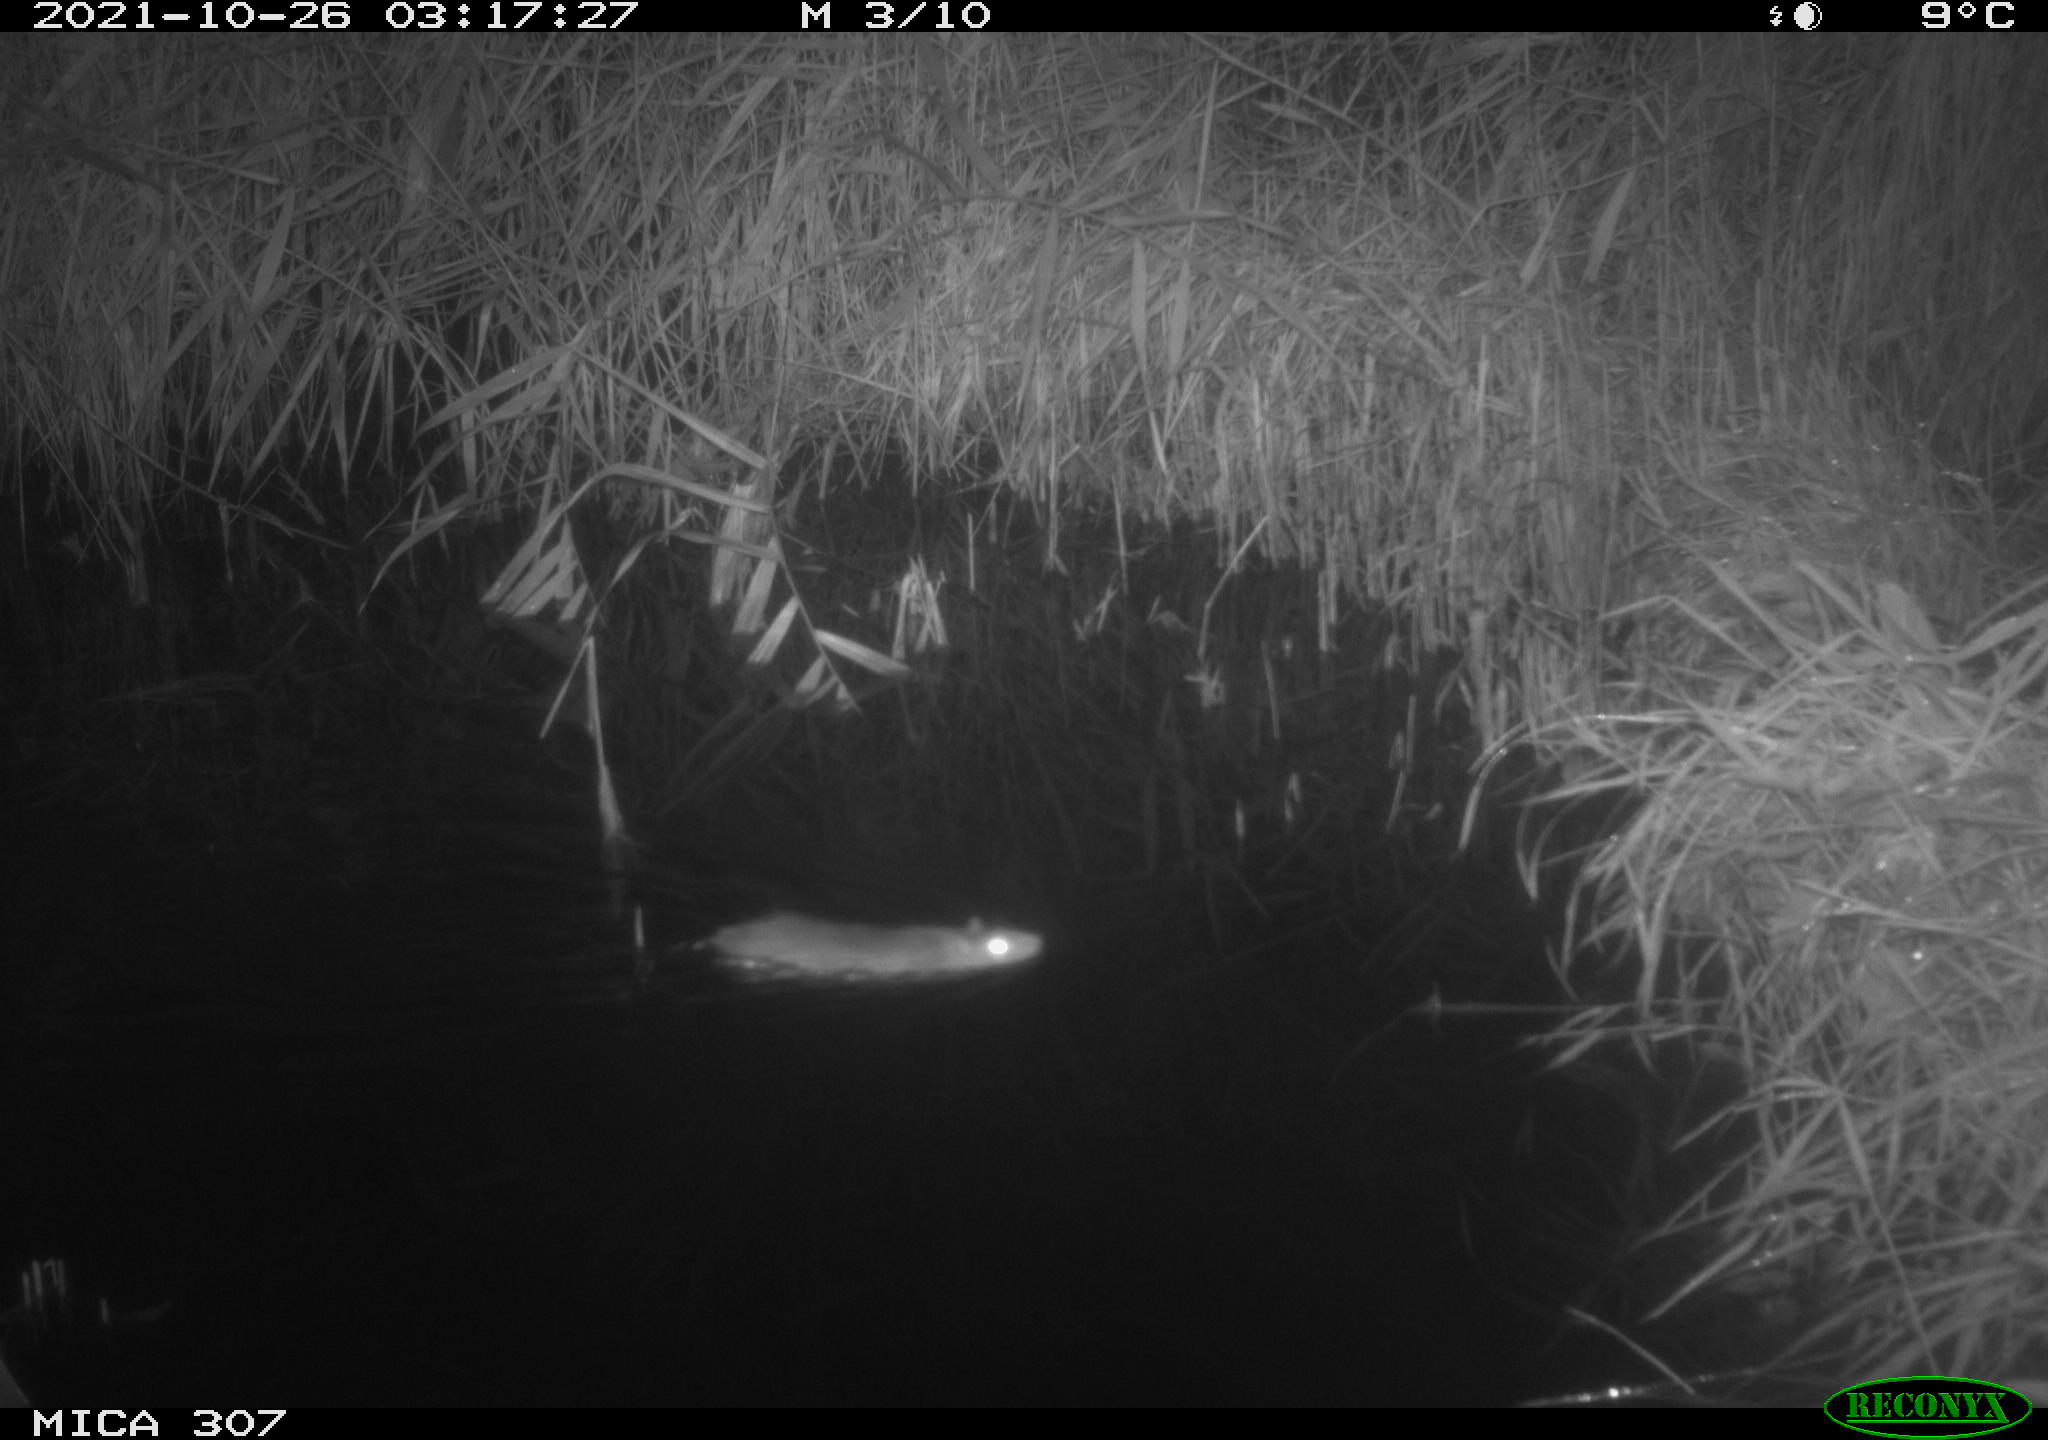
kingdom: Animalia
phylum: Chordata
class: Mammalia
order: Rodentia
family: Muridae
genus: Rattus
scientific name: Rattus norvegicus
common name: Brown rat
